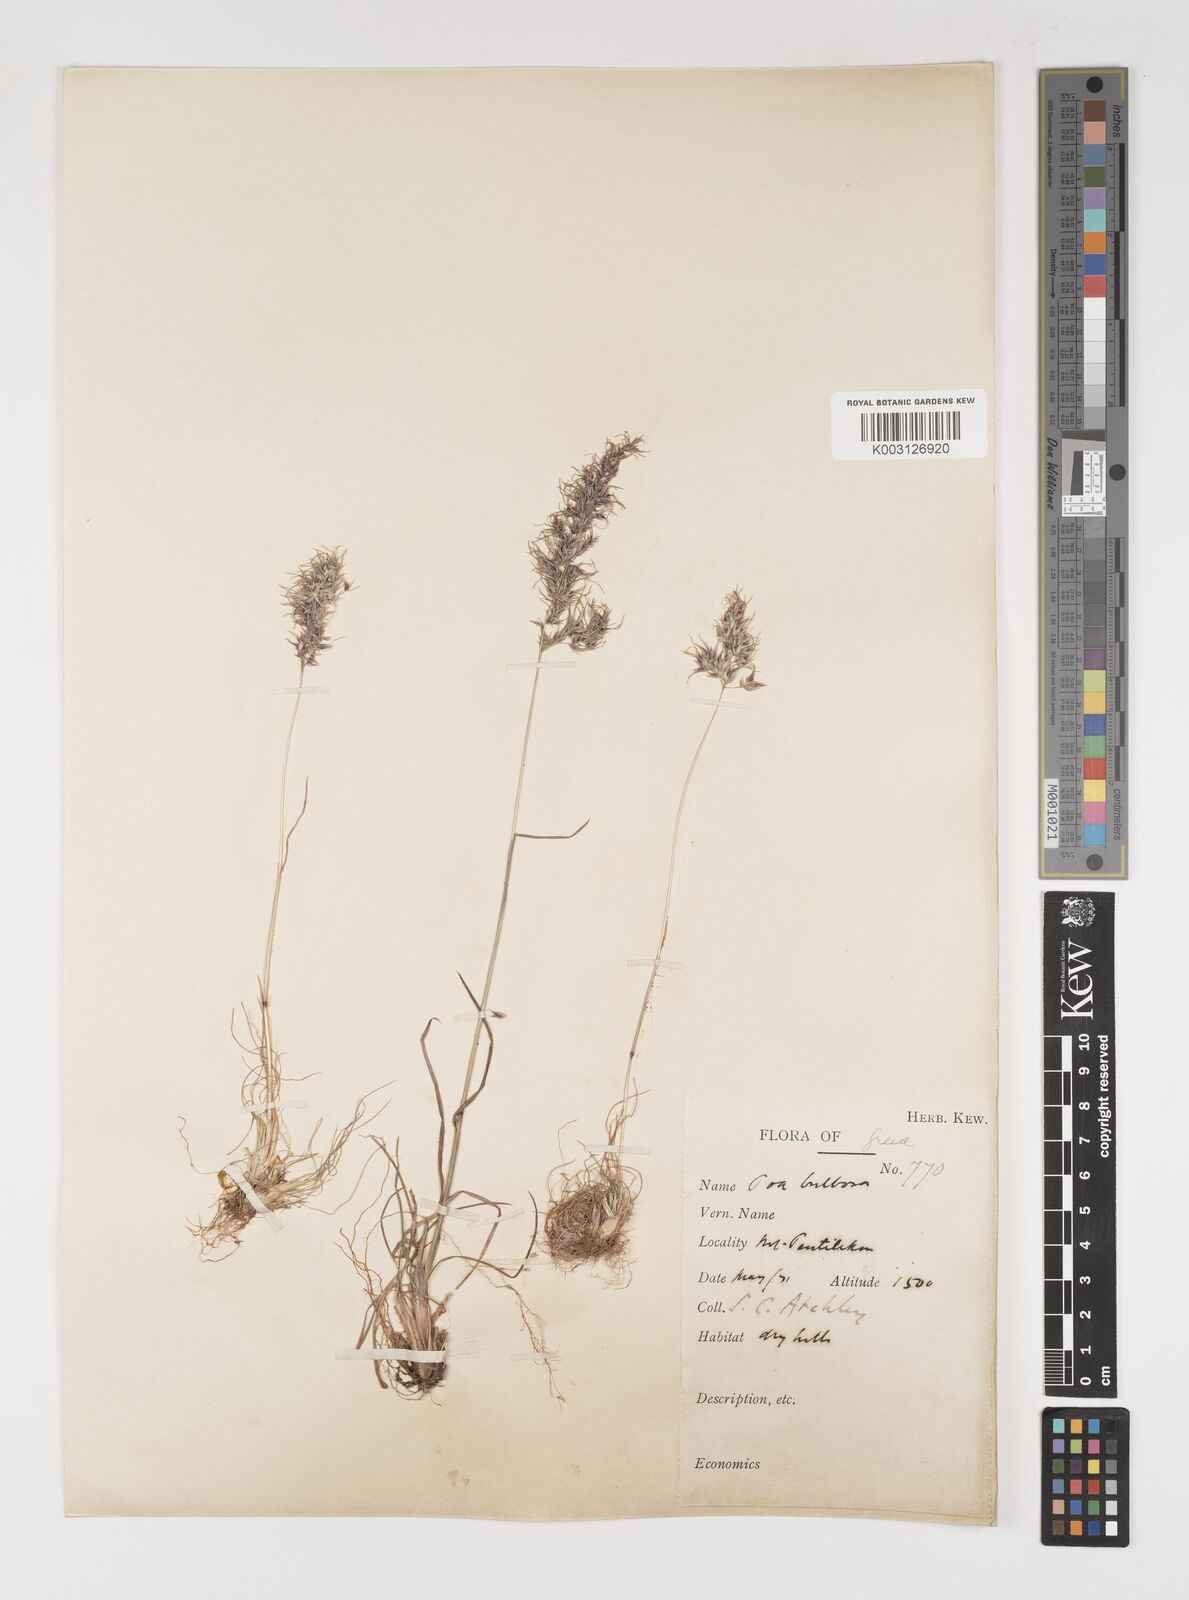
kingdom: Plantae
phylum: Tracheophyta
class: Liliopsida
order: Poales
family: Poaceae
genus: Poa
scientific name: Poa bulbosa
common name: Bulbous bluegrass
